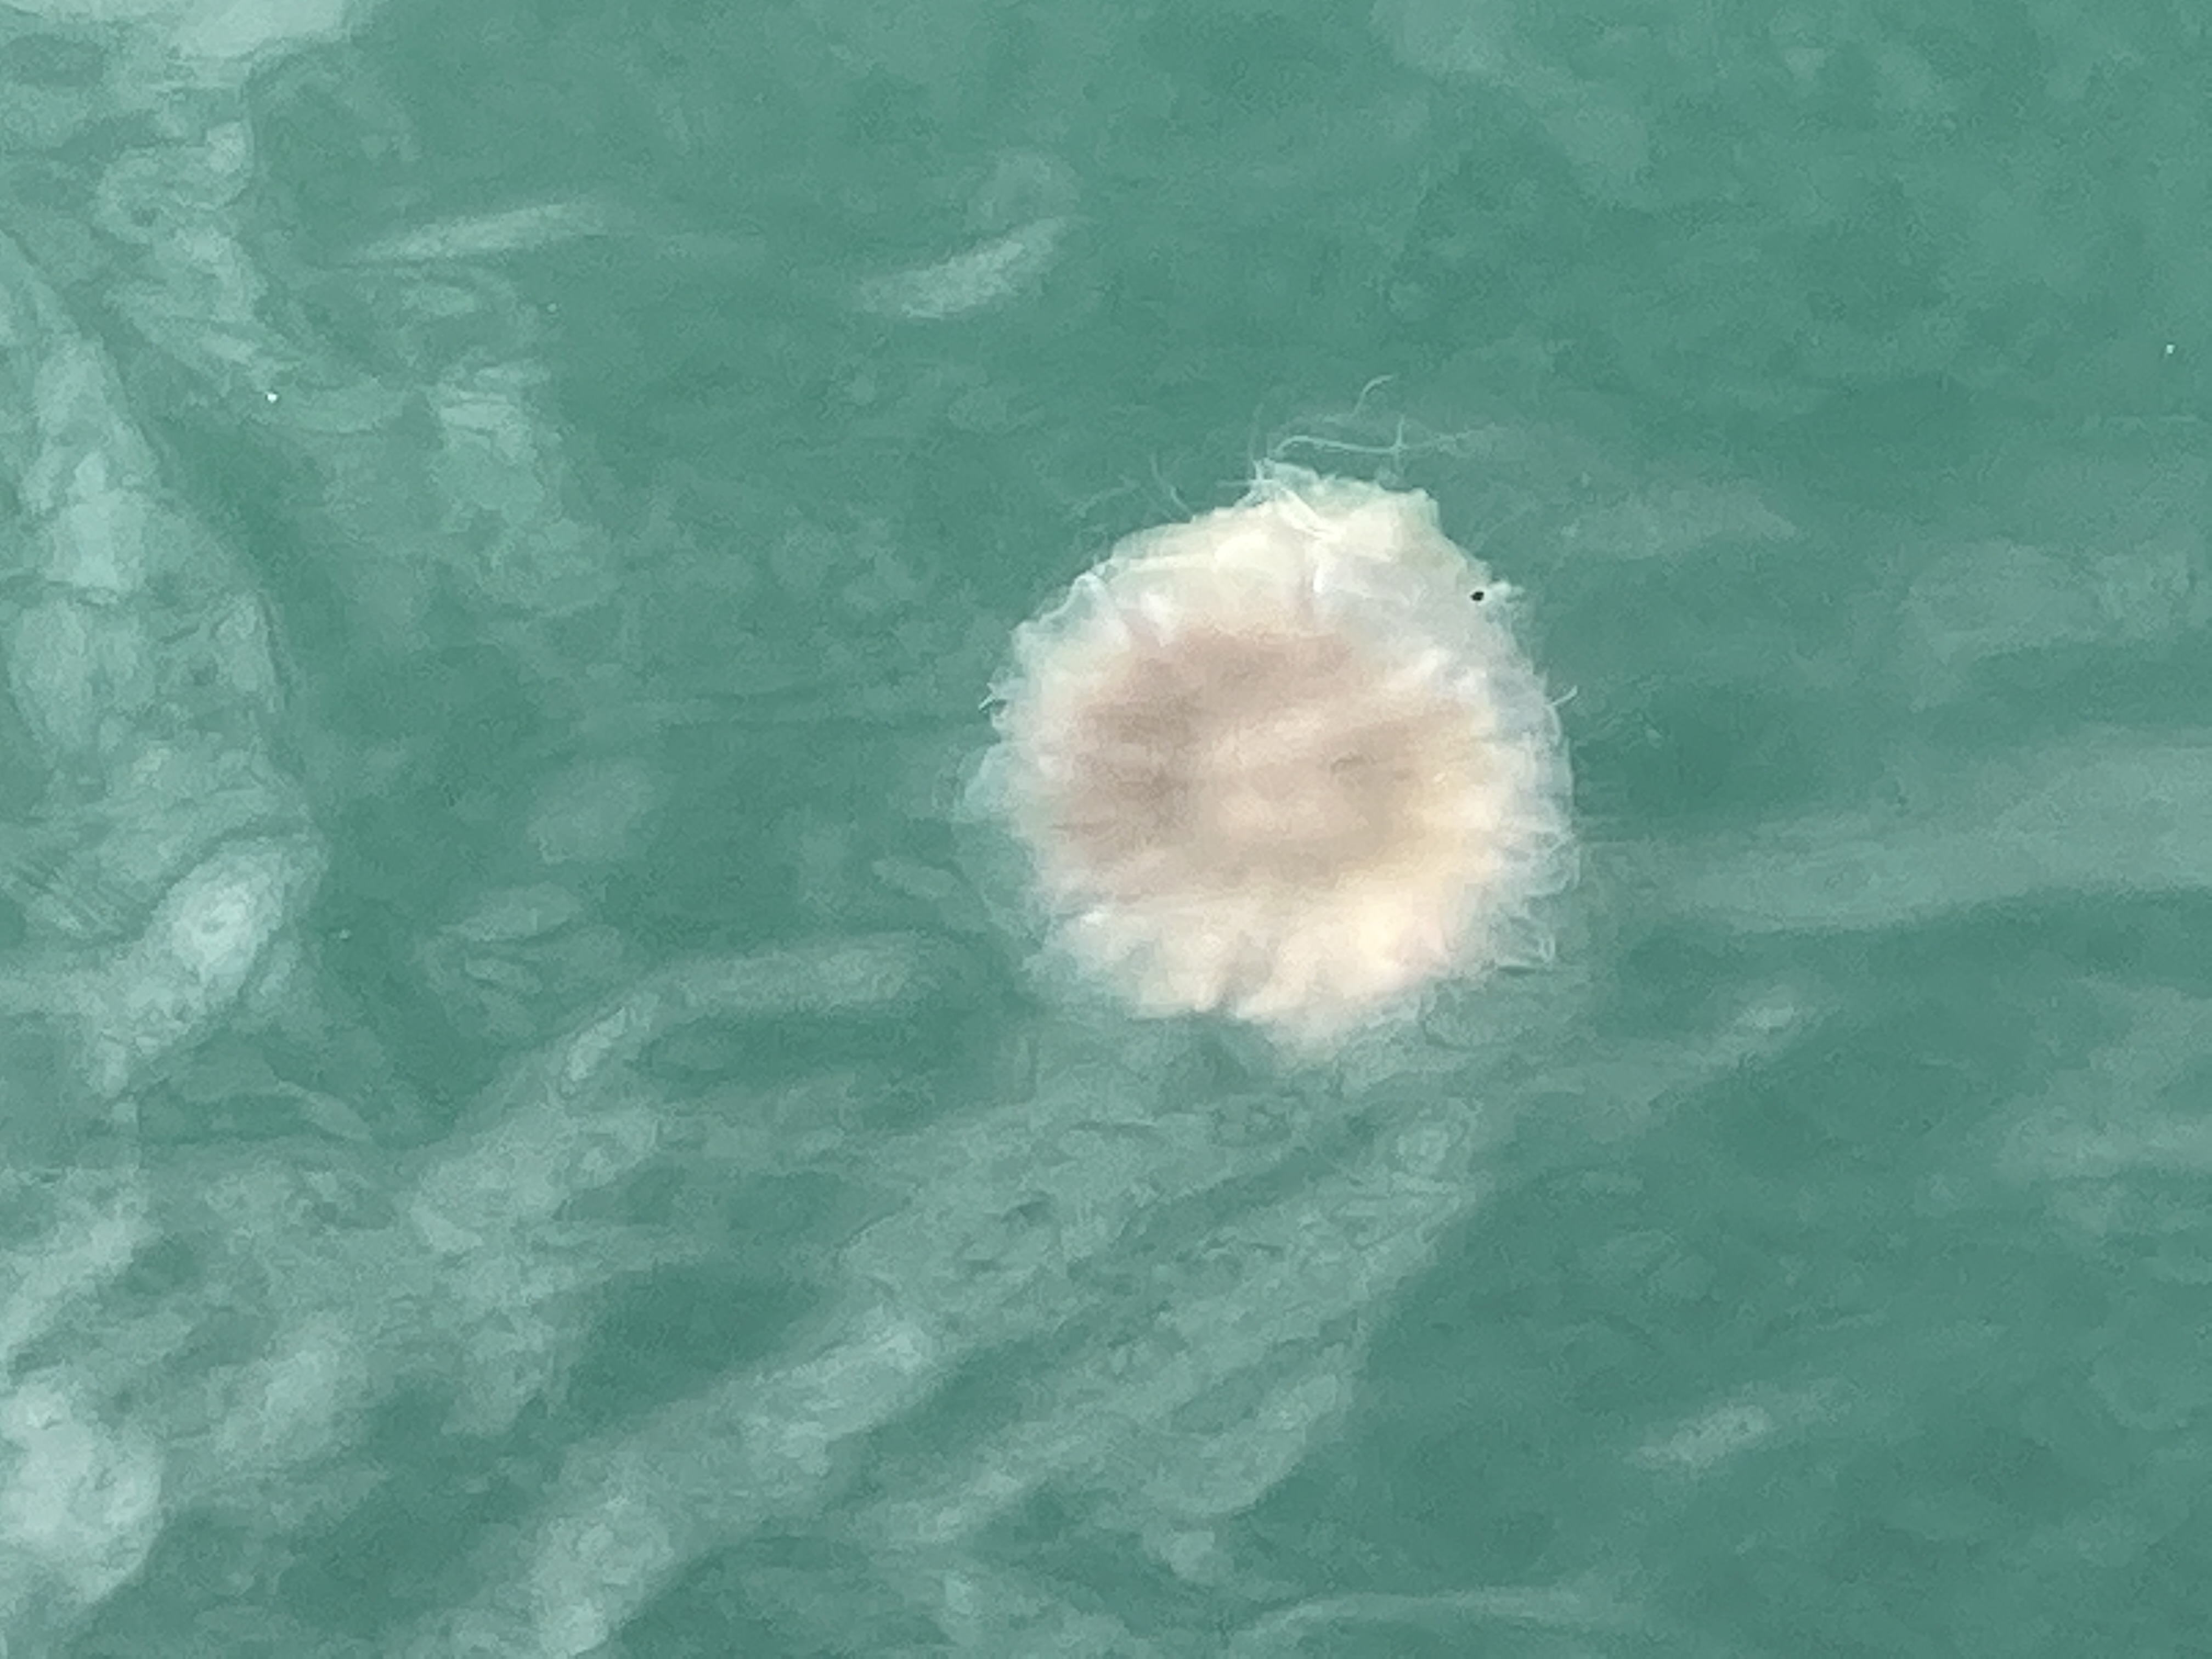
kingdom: Animalia
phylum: Cnidaria
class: Scyphozoa
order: Semaeostomeae
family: Cyaneidae
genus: Cyanea
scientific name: Cyanea nozakii
